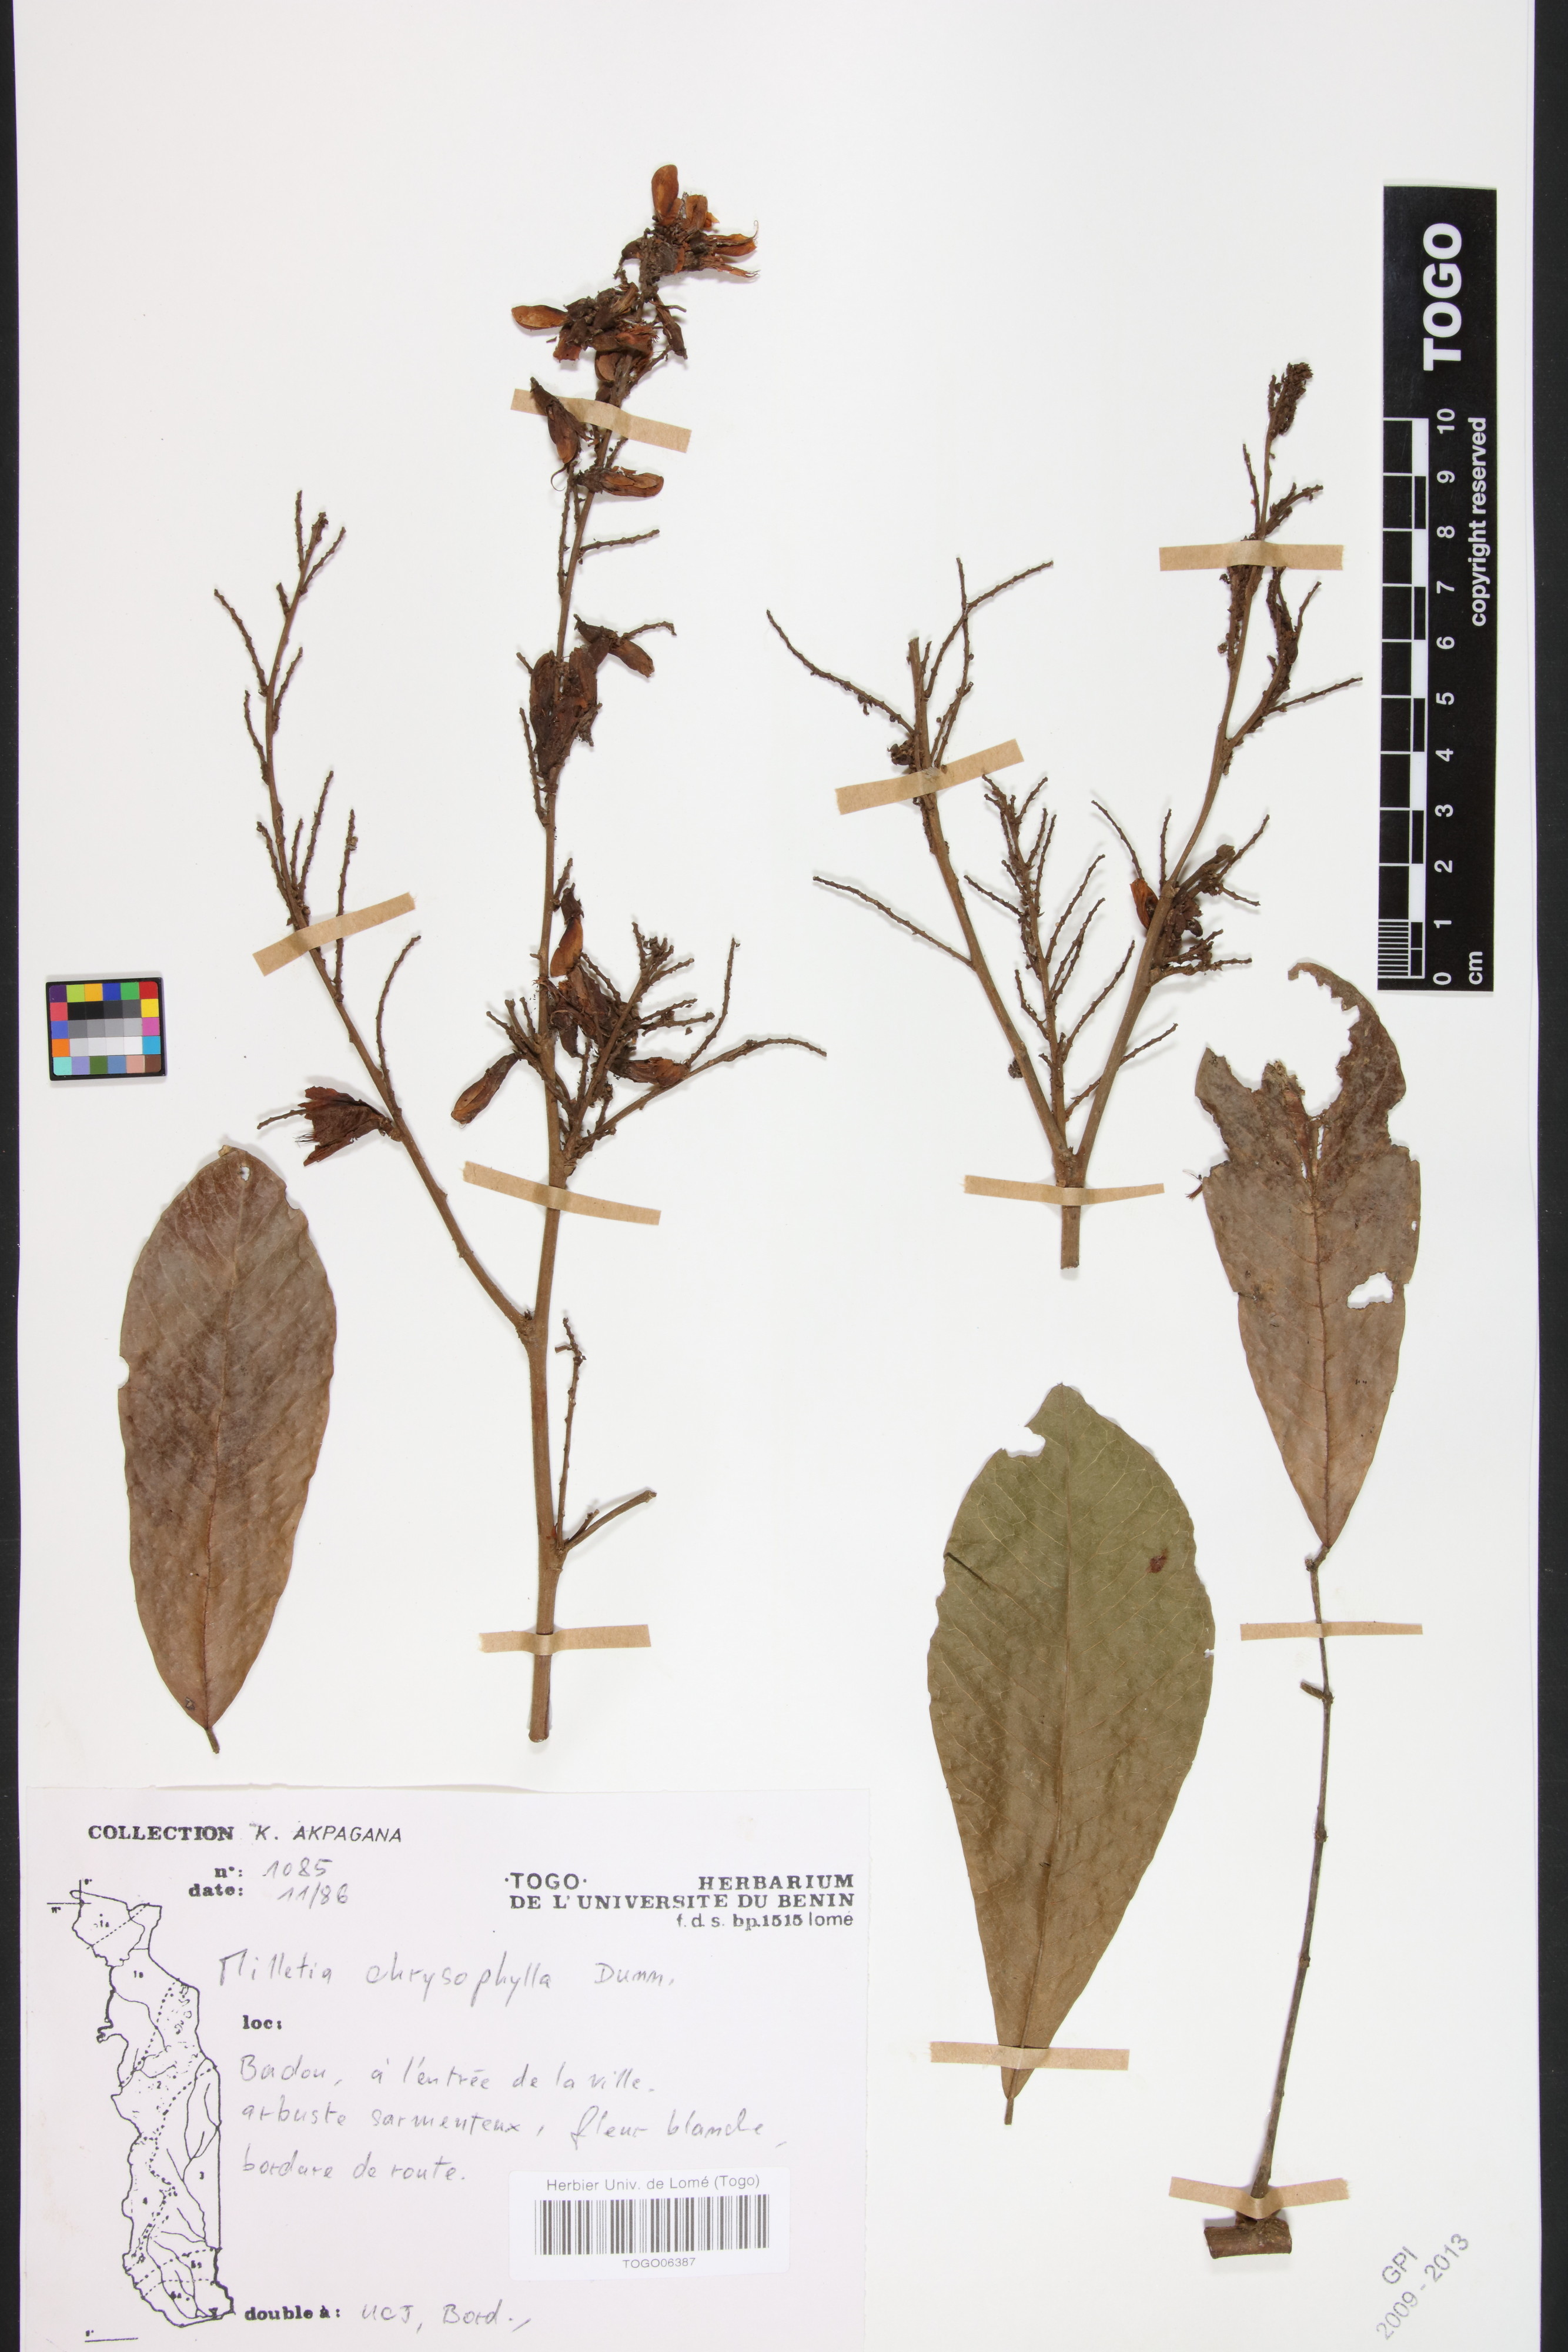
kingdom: Plantae
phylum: Tracheophyta
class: Magnoliopsida
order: Fabales
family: Fabaceae
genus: Millettia
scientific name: Millettia chrysophylla
